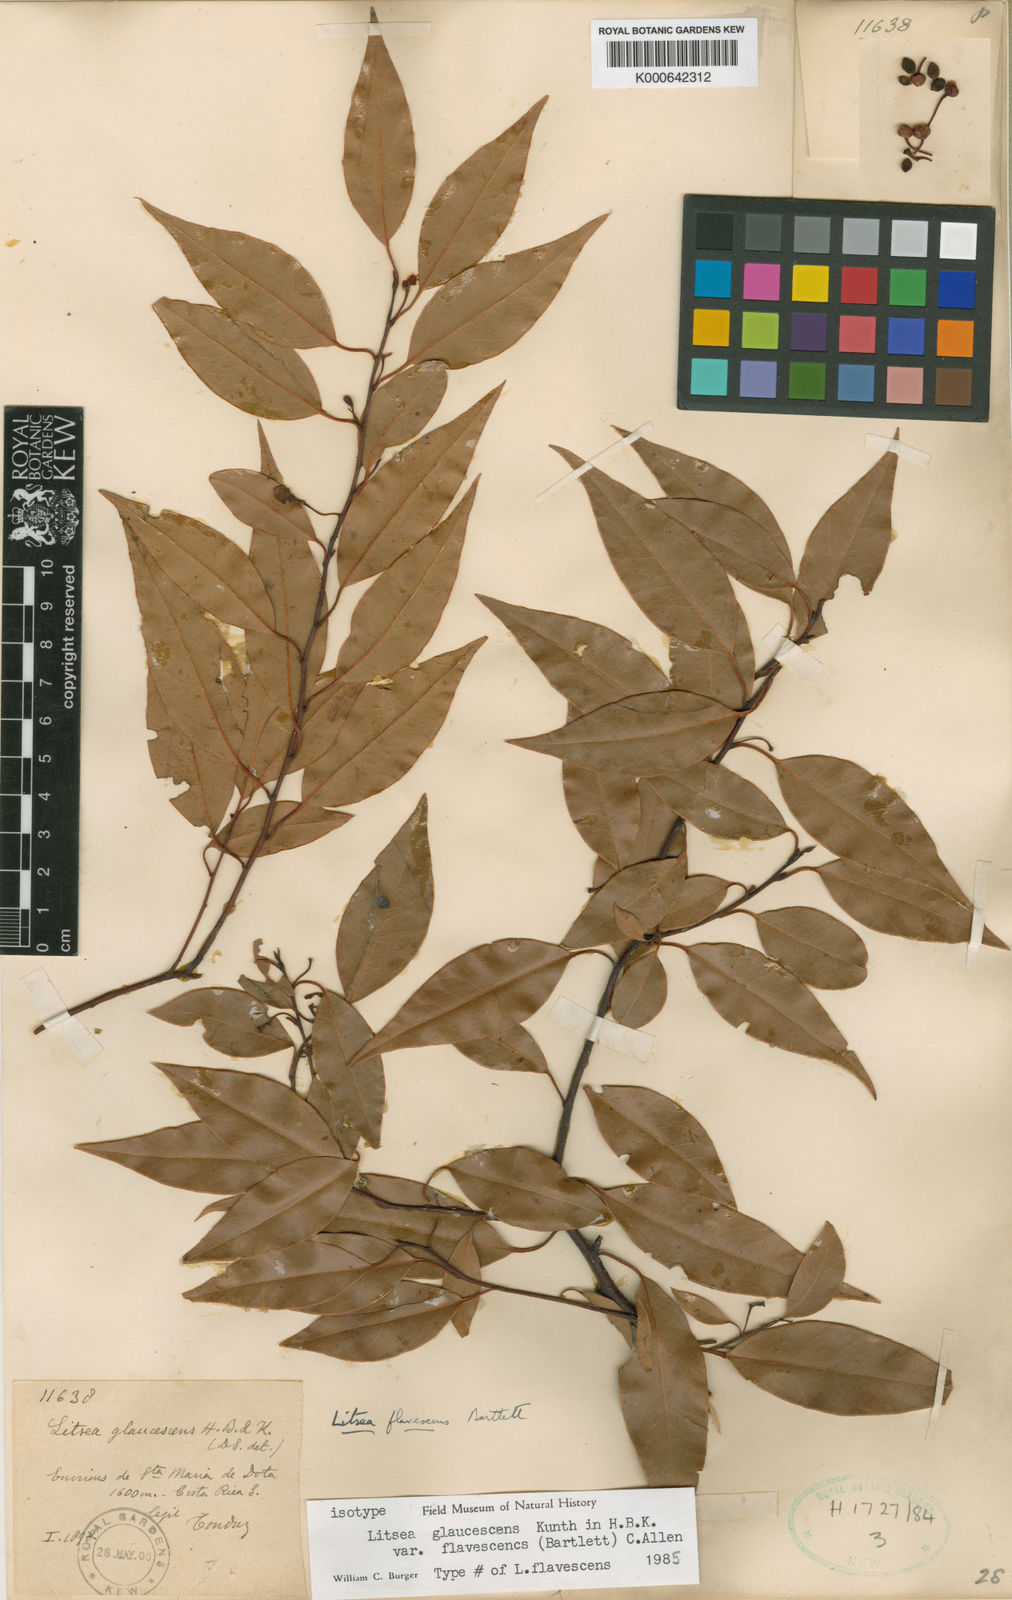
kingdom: Plantae
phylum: Tracheophyta
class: Magnoliopsida
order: Laurales
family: Lauraceae
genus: Licaria
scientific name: Licaria triandra
